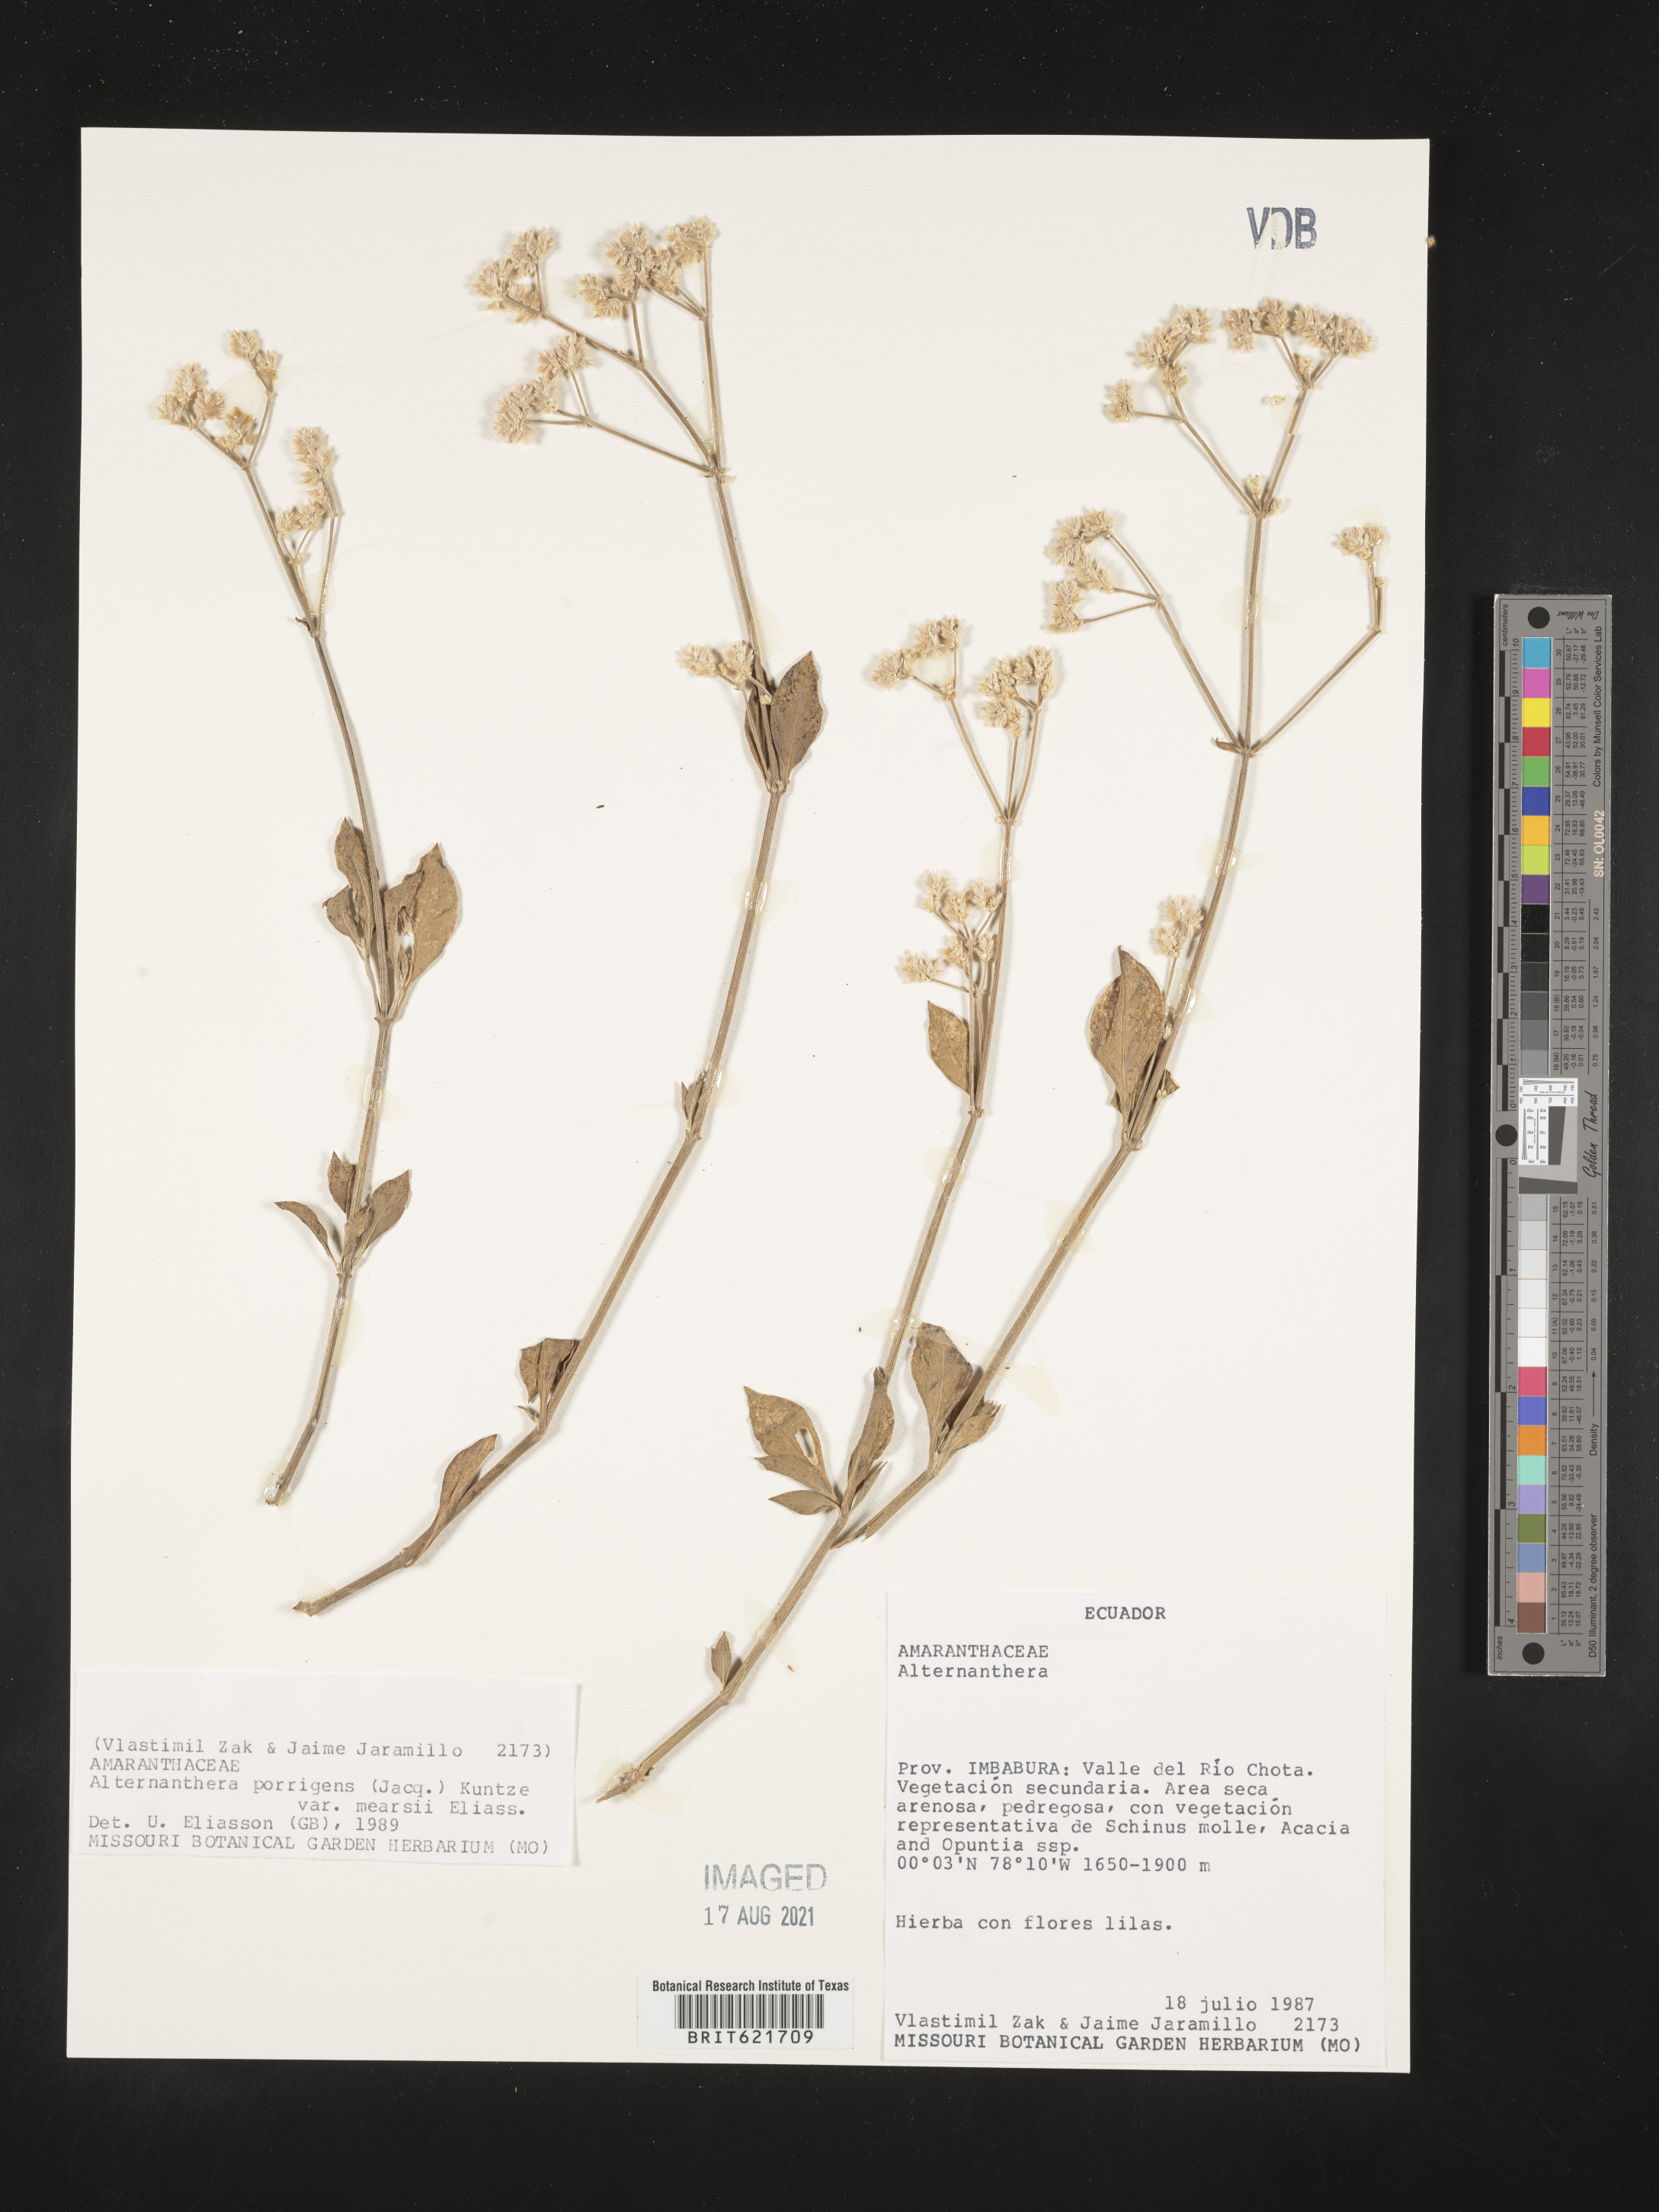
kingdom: Plantae
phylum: Tracheophyta
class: Magnoliopsida
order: Caryophyllales
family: Amaranthaceae
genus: Alternanthera
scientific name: Alternanthera porrigens
